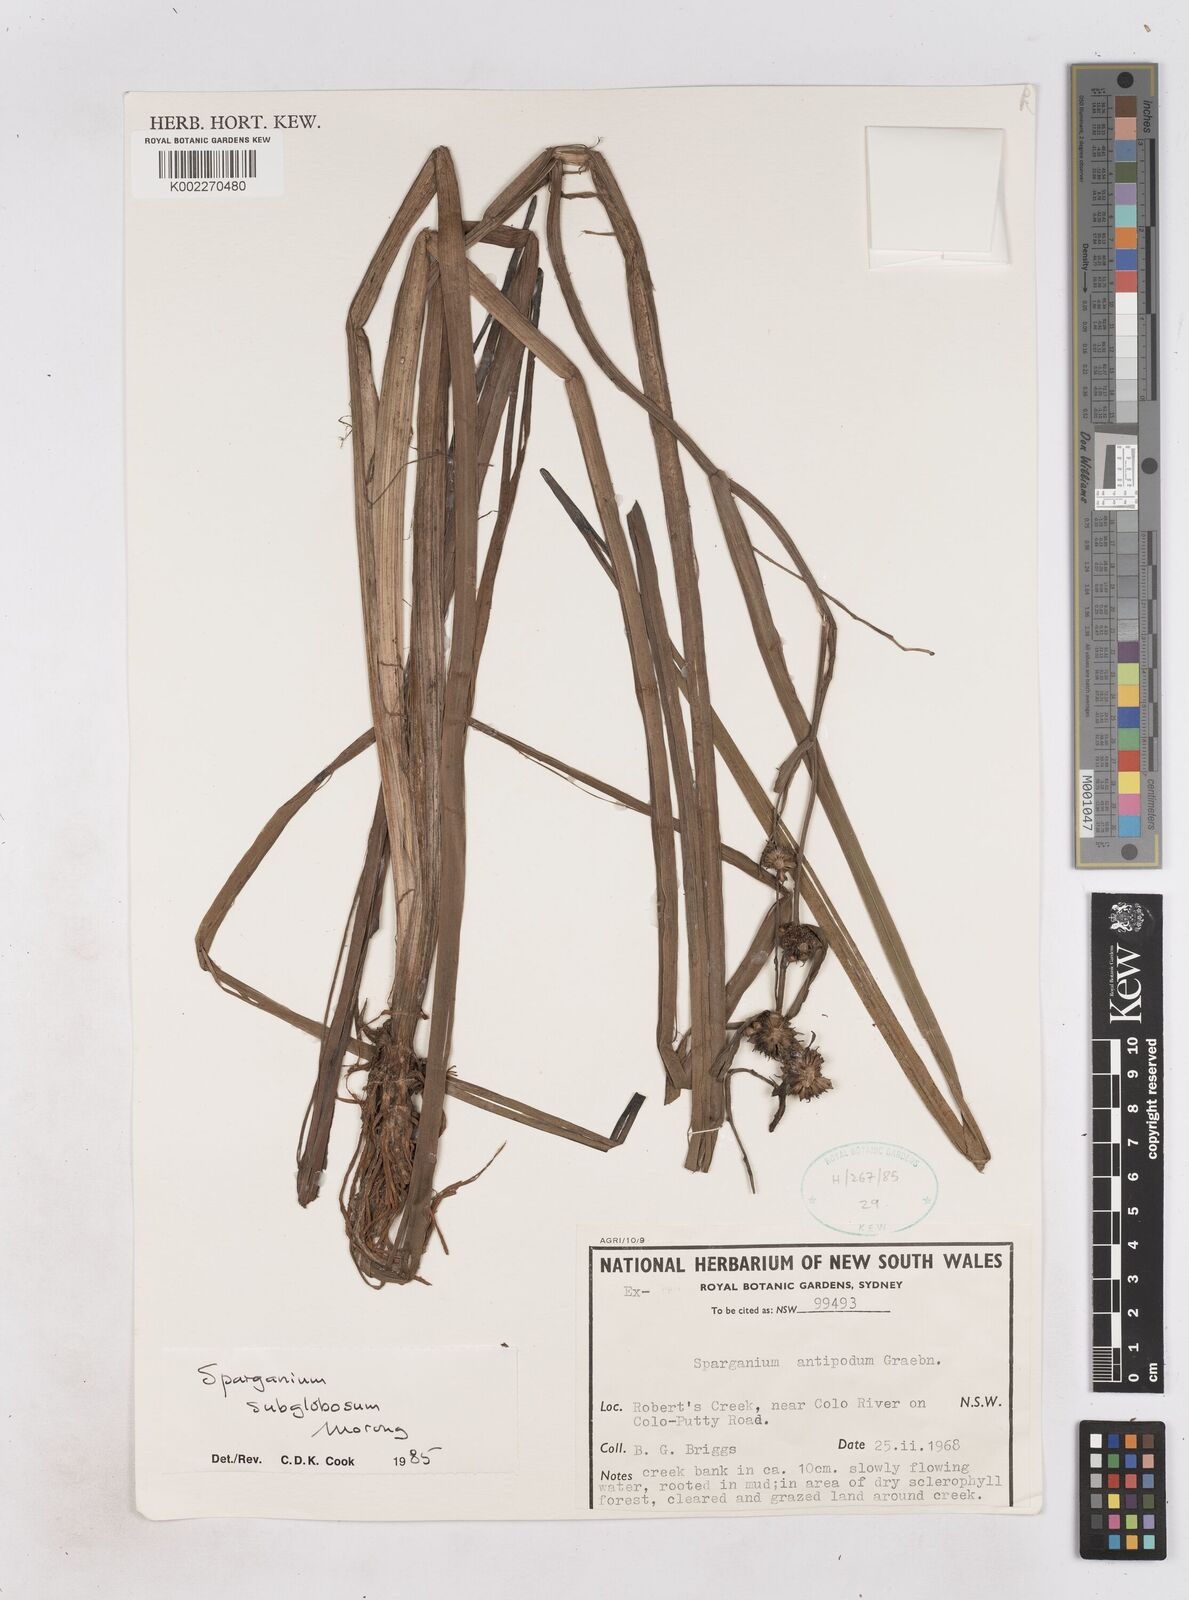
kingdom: Plantae
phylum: Tracheophyta
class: Liliopsida
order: Poales
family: Typhaceae
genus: Sparganium
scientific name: Sparganium subglobosum
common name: Burr­-reed
